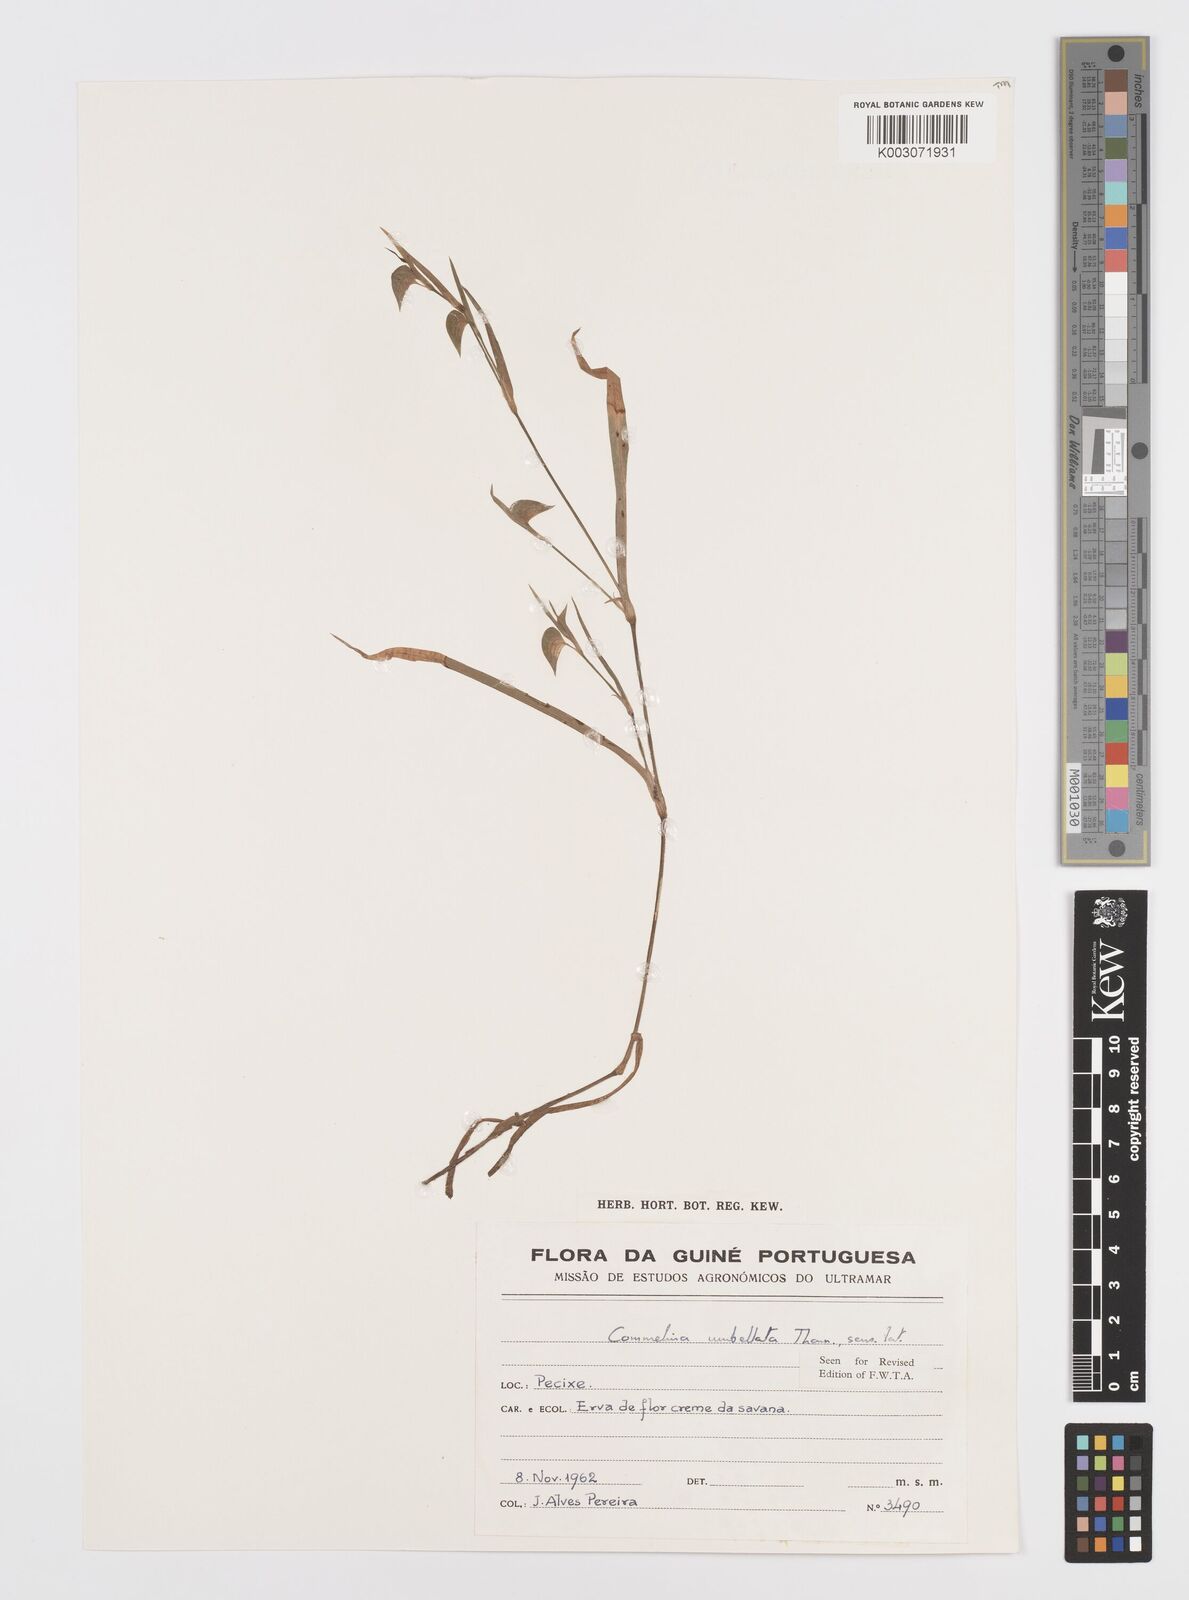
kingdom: Plantae
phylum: Tracheophyta
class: Liliopsida
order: Commelinales
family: Commelinaceae
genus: Commelina
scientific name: Commelina
